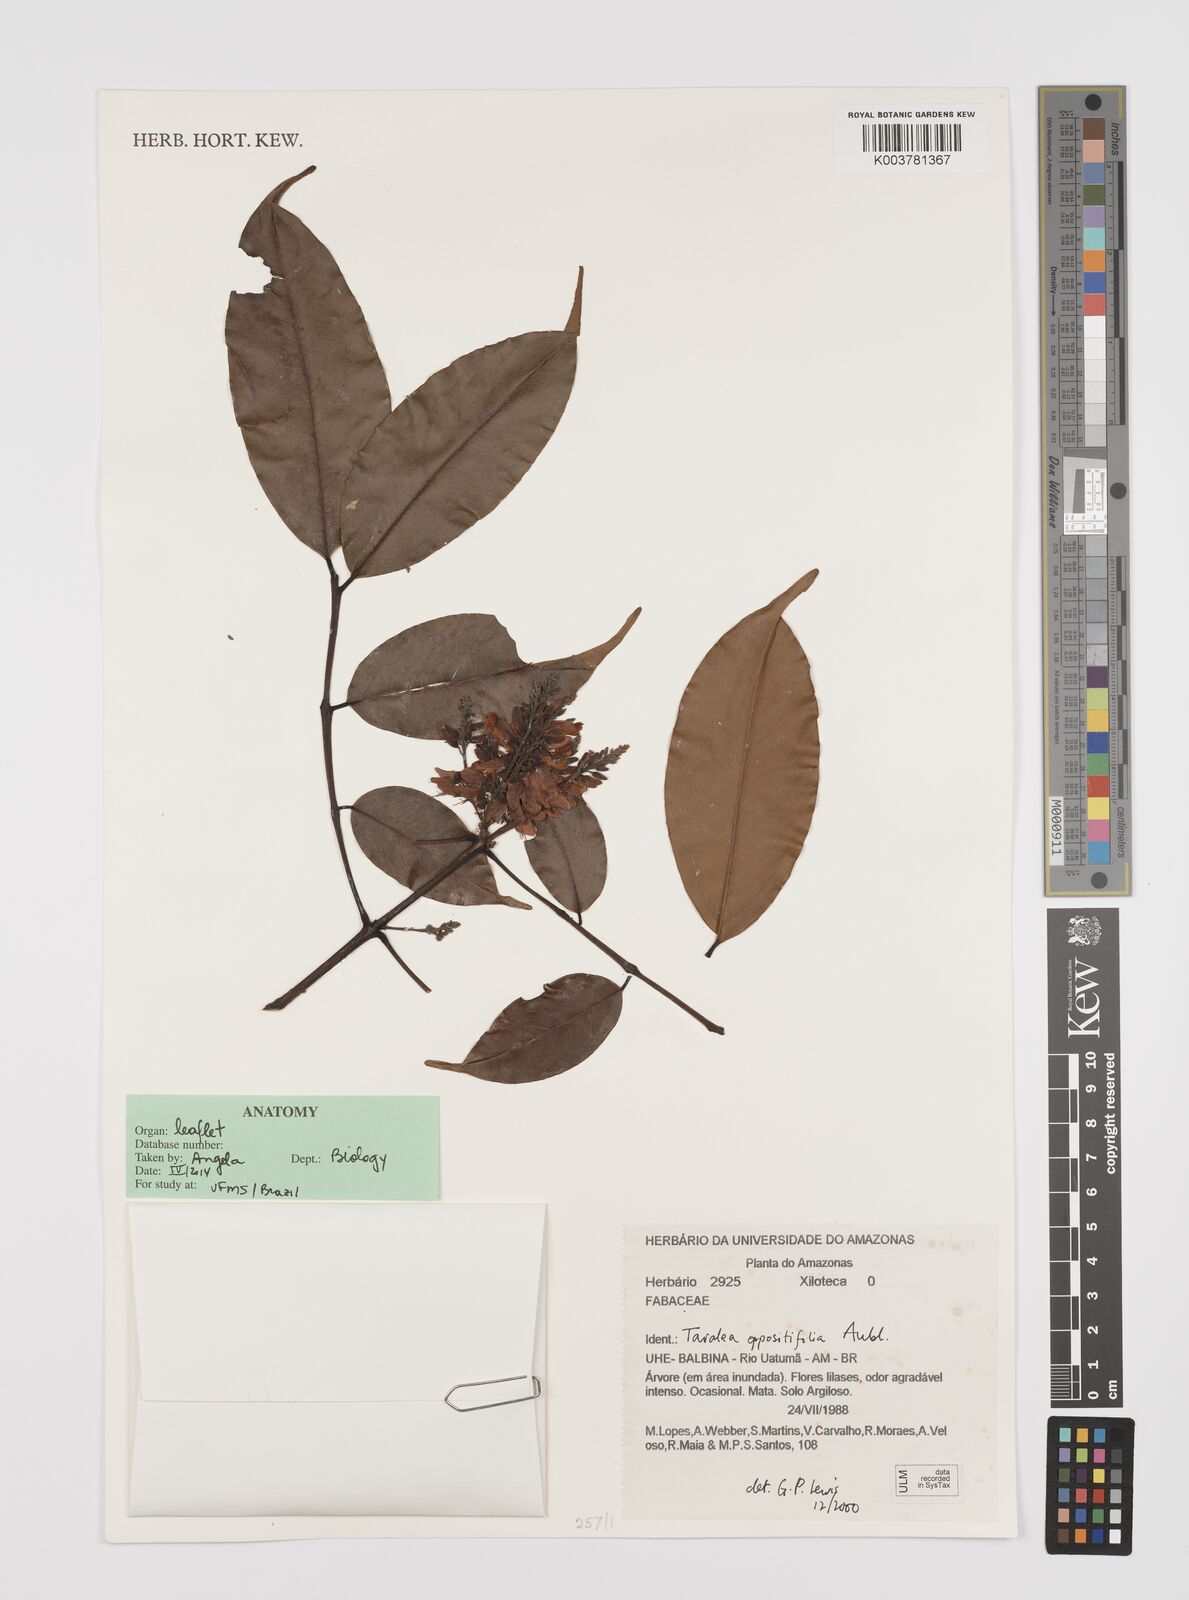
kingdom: Plantae
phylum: Tracheophyta
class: Magnoliopsida
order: Fabales
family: Fabaceae
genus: Taralea
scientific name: Taralea oppositifolia
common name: Tonka
